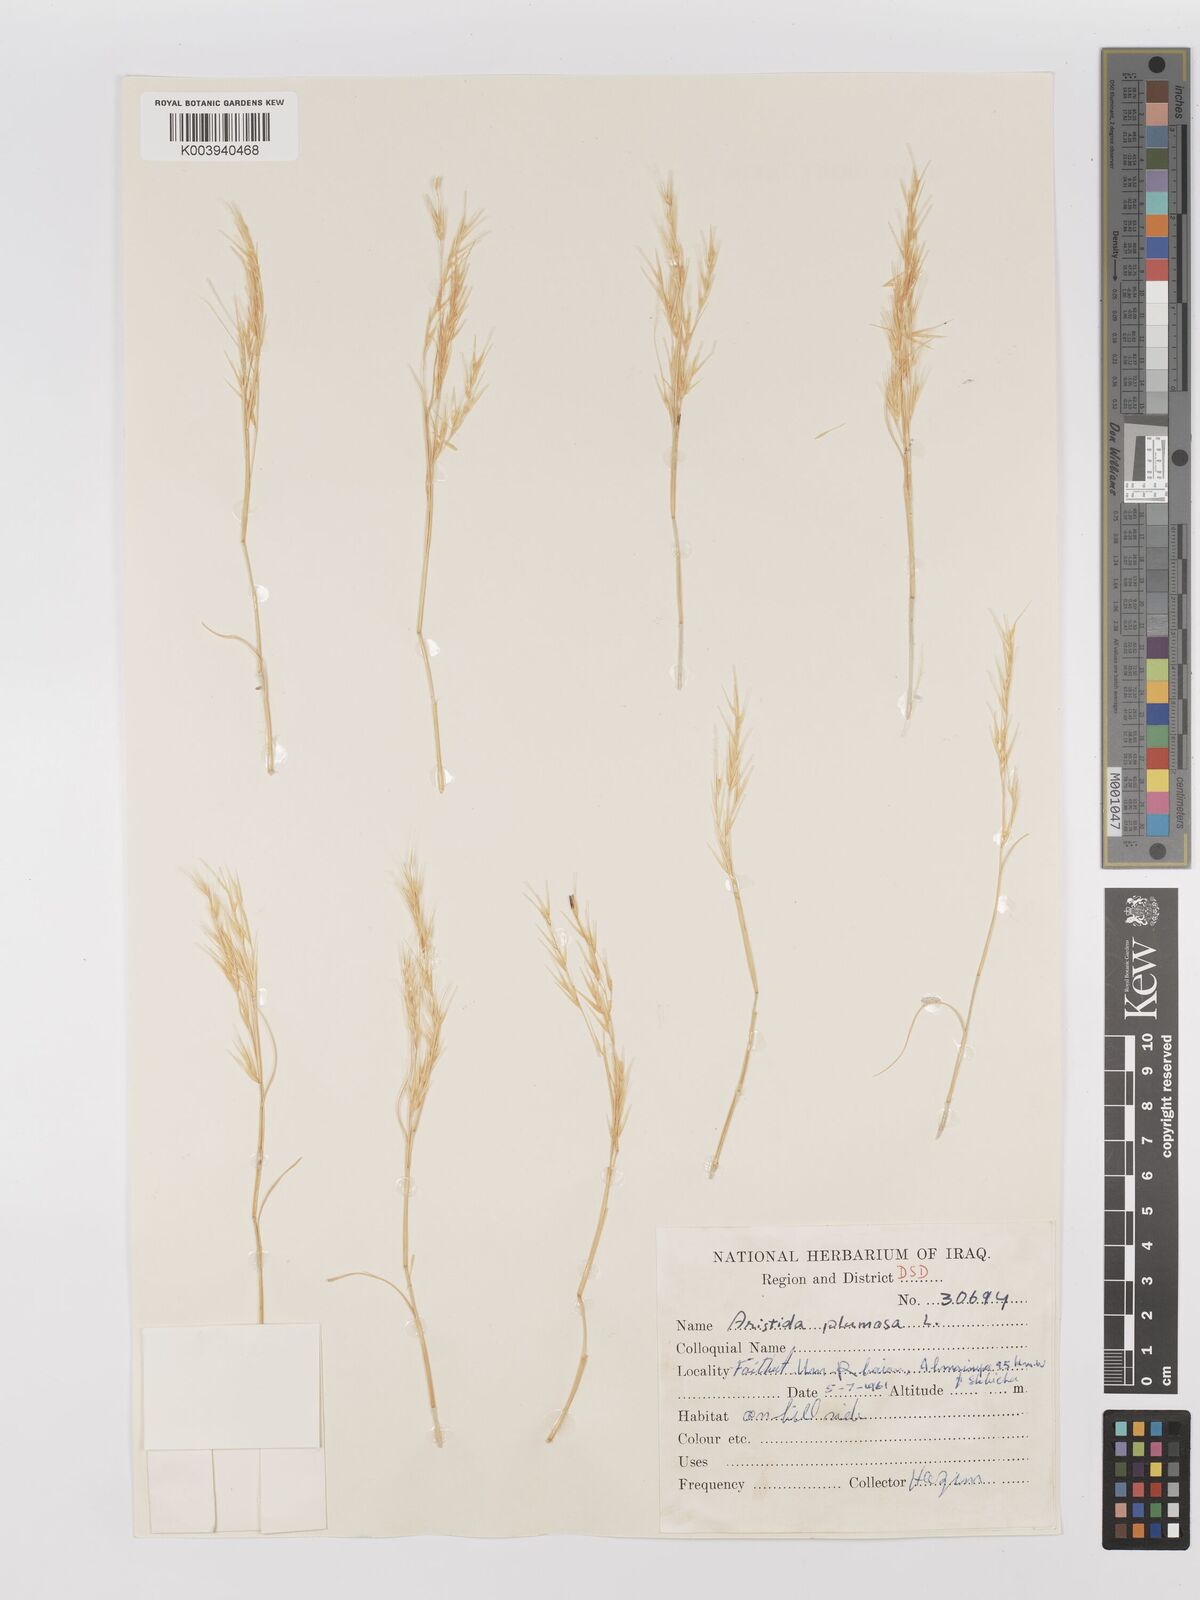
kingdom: Plantae
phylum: Tracheophyta
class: Liliopsida
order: Poales
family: Poaceae
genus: Stipagrostis
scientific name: Stipagrostis plumosa
